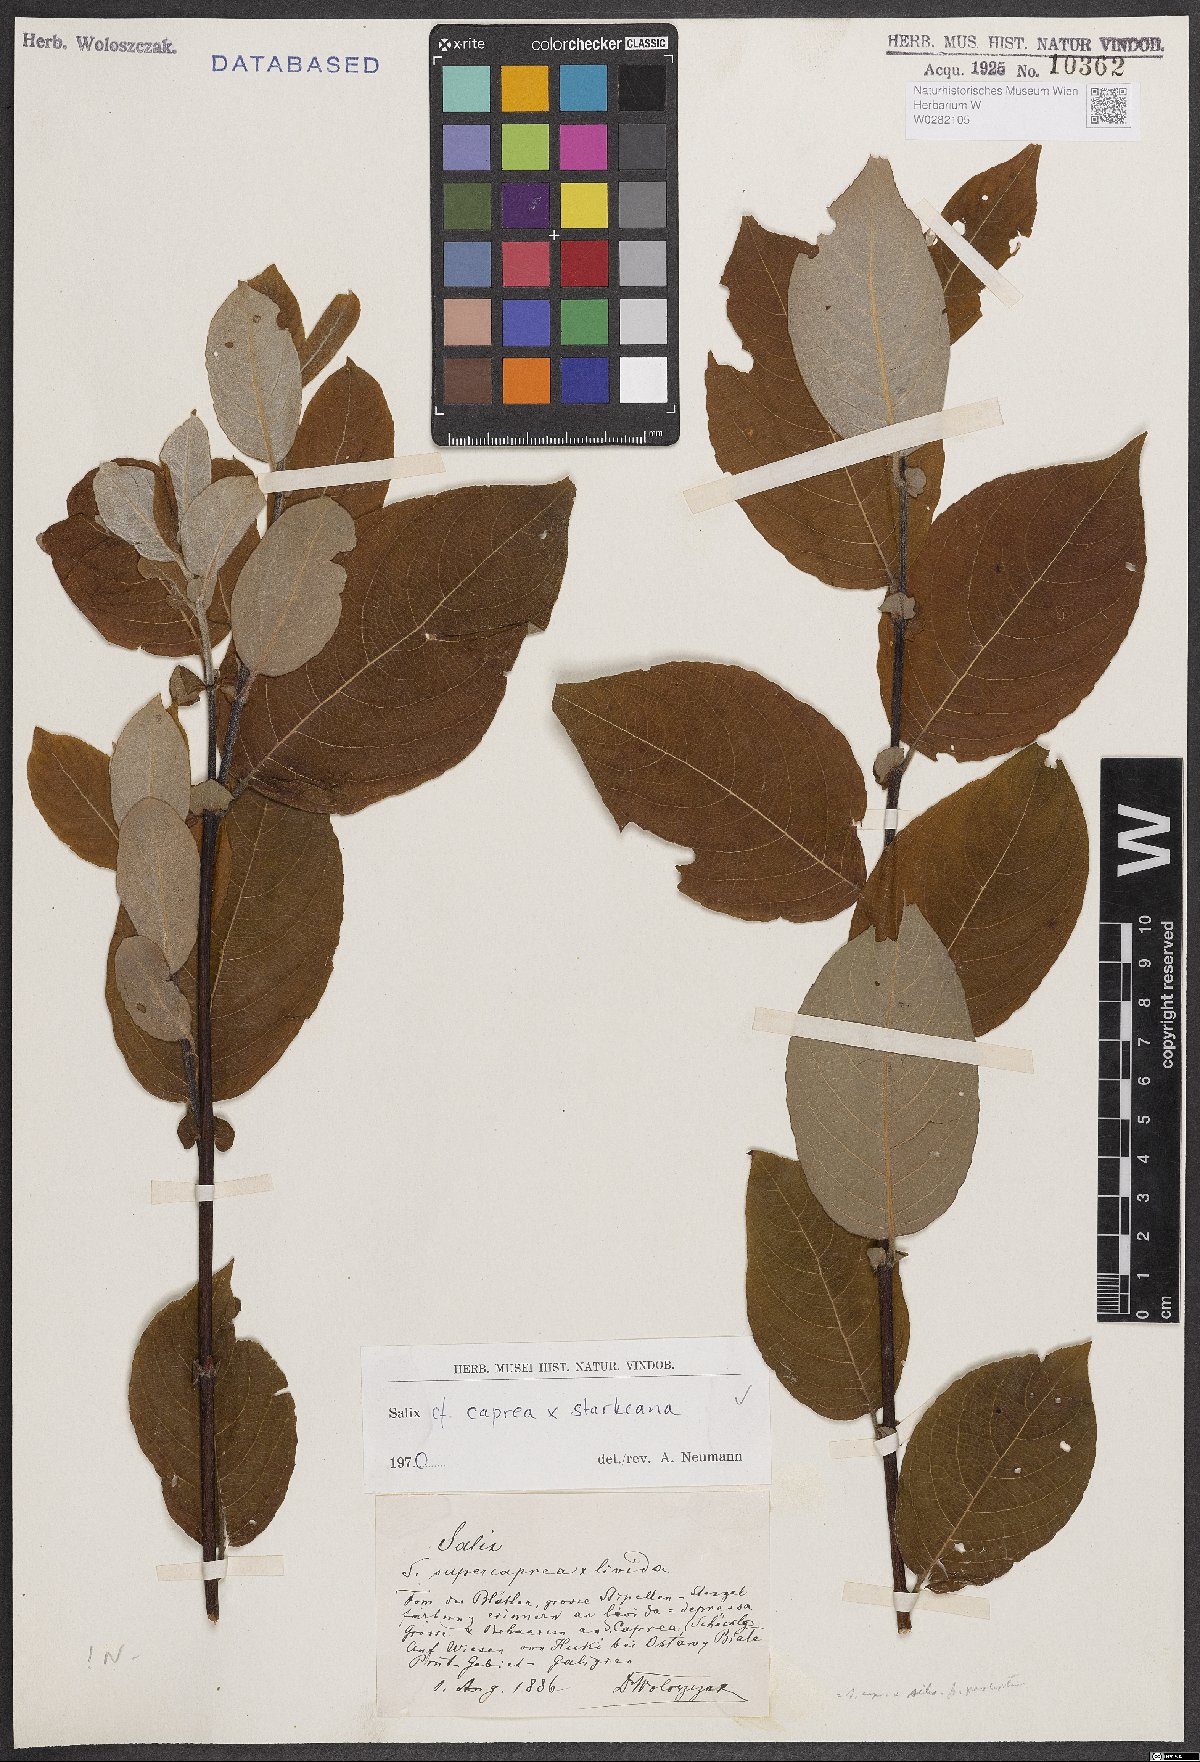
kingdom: Plantae
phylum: Tracheophyta
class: Magnoliopsida
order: Malpighiales
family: Salicaceae
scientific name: Salicaceae
